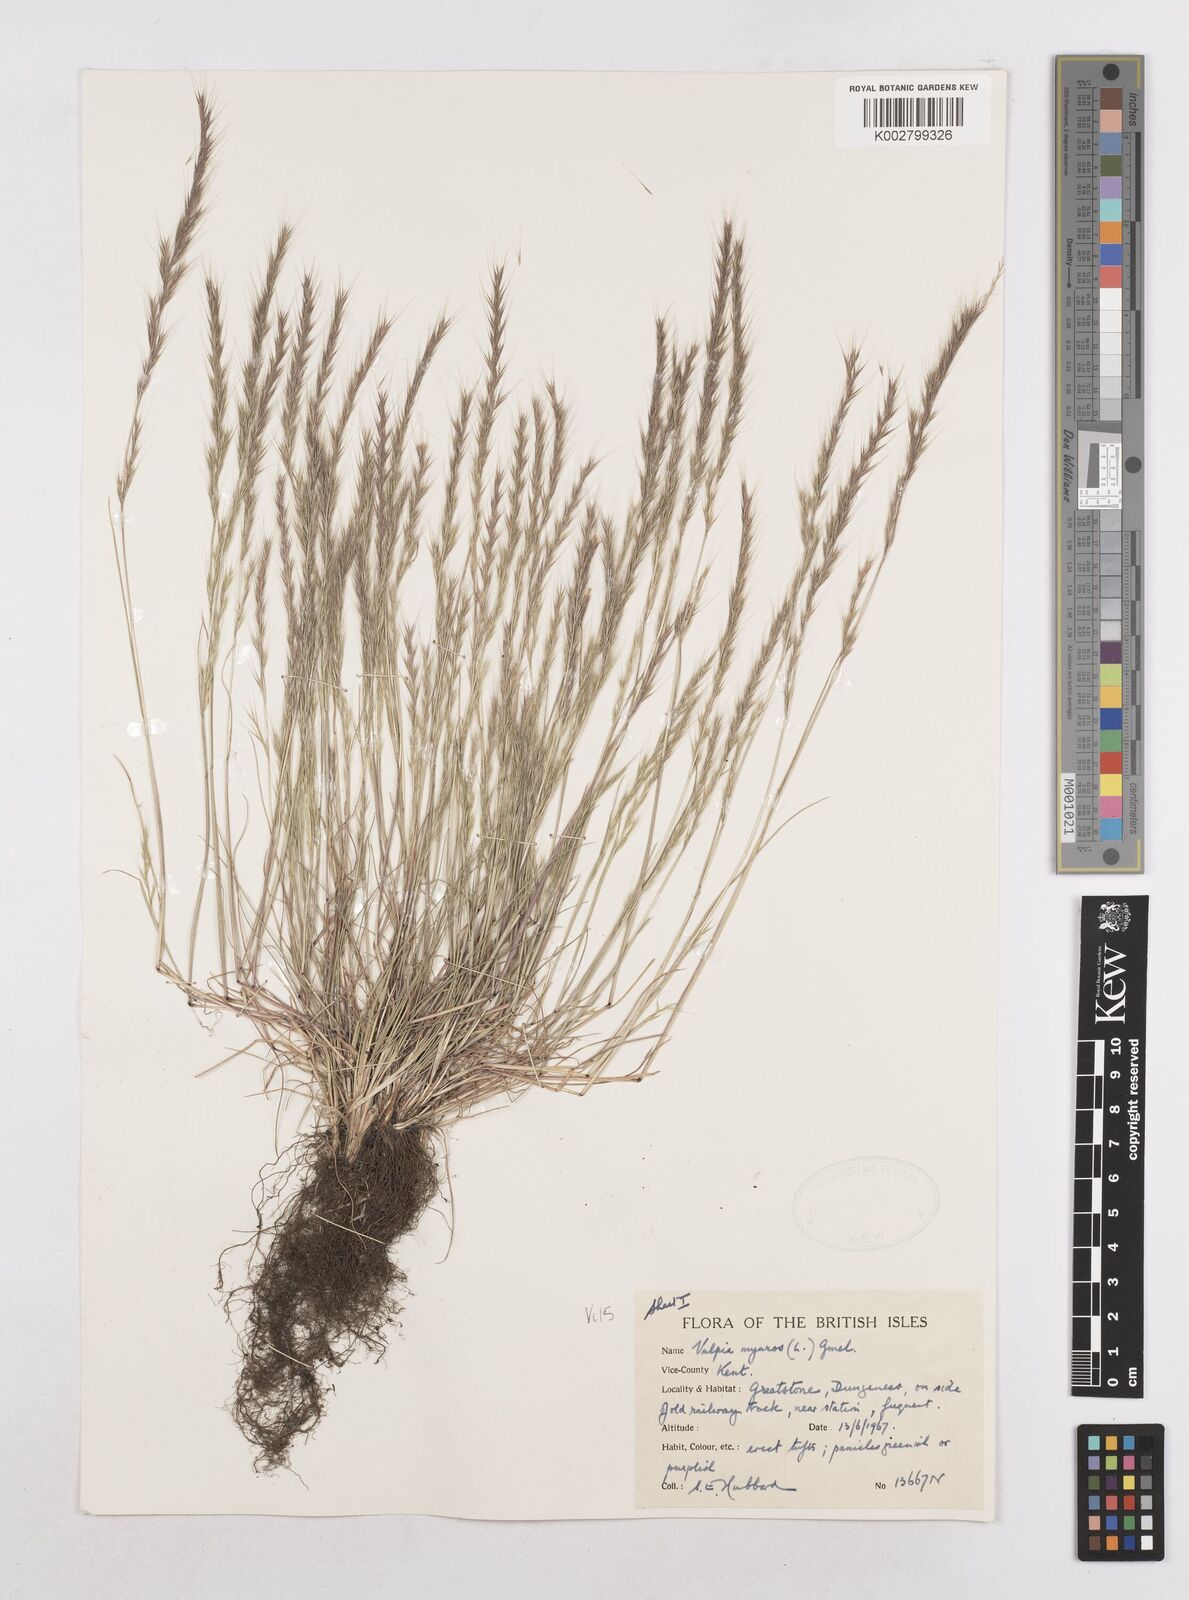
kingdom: Plantae
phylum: Tracheophyta
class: Liliopsida
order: Poales
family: Poaceae
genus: Festuca
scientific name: Festuca myuros
